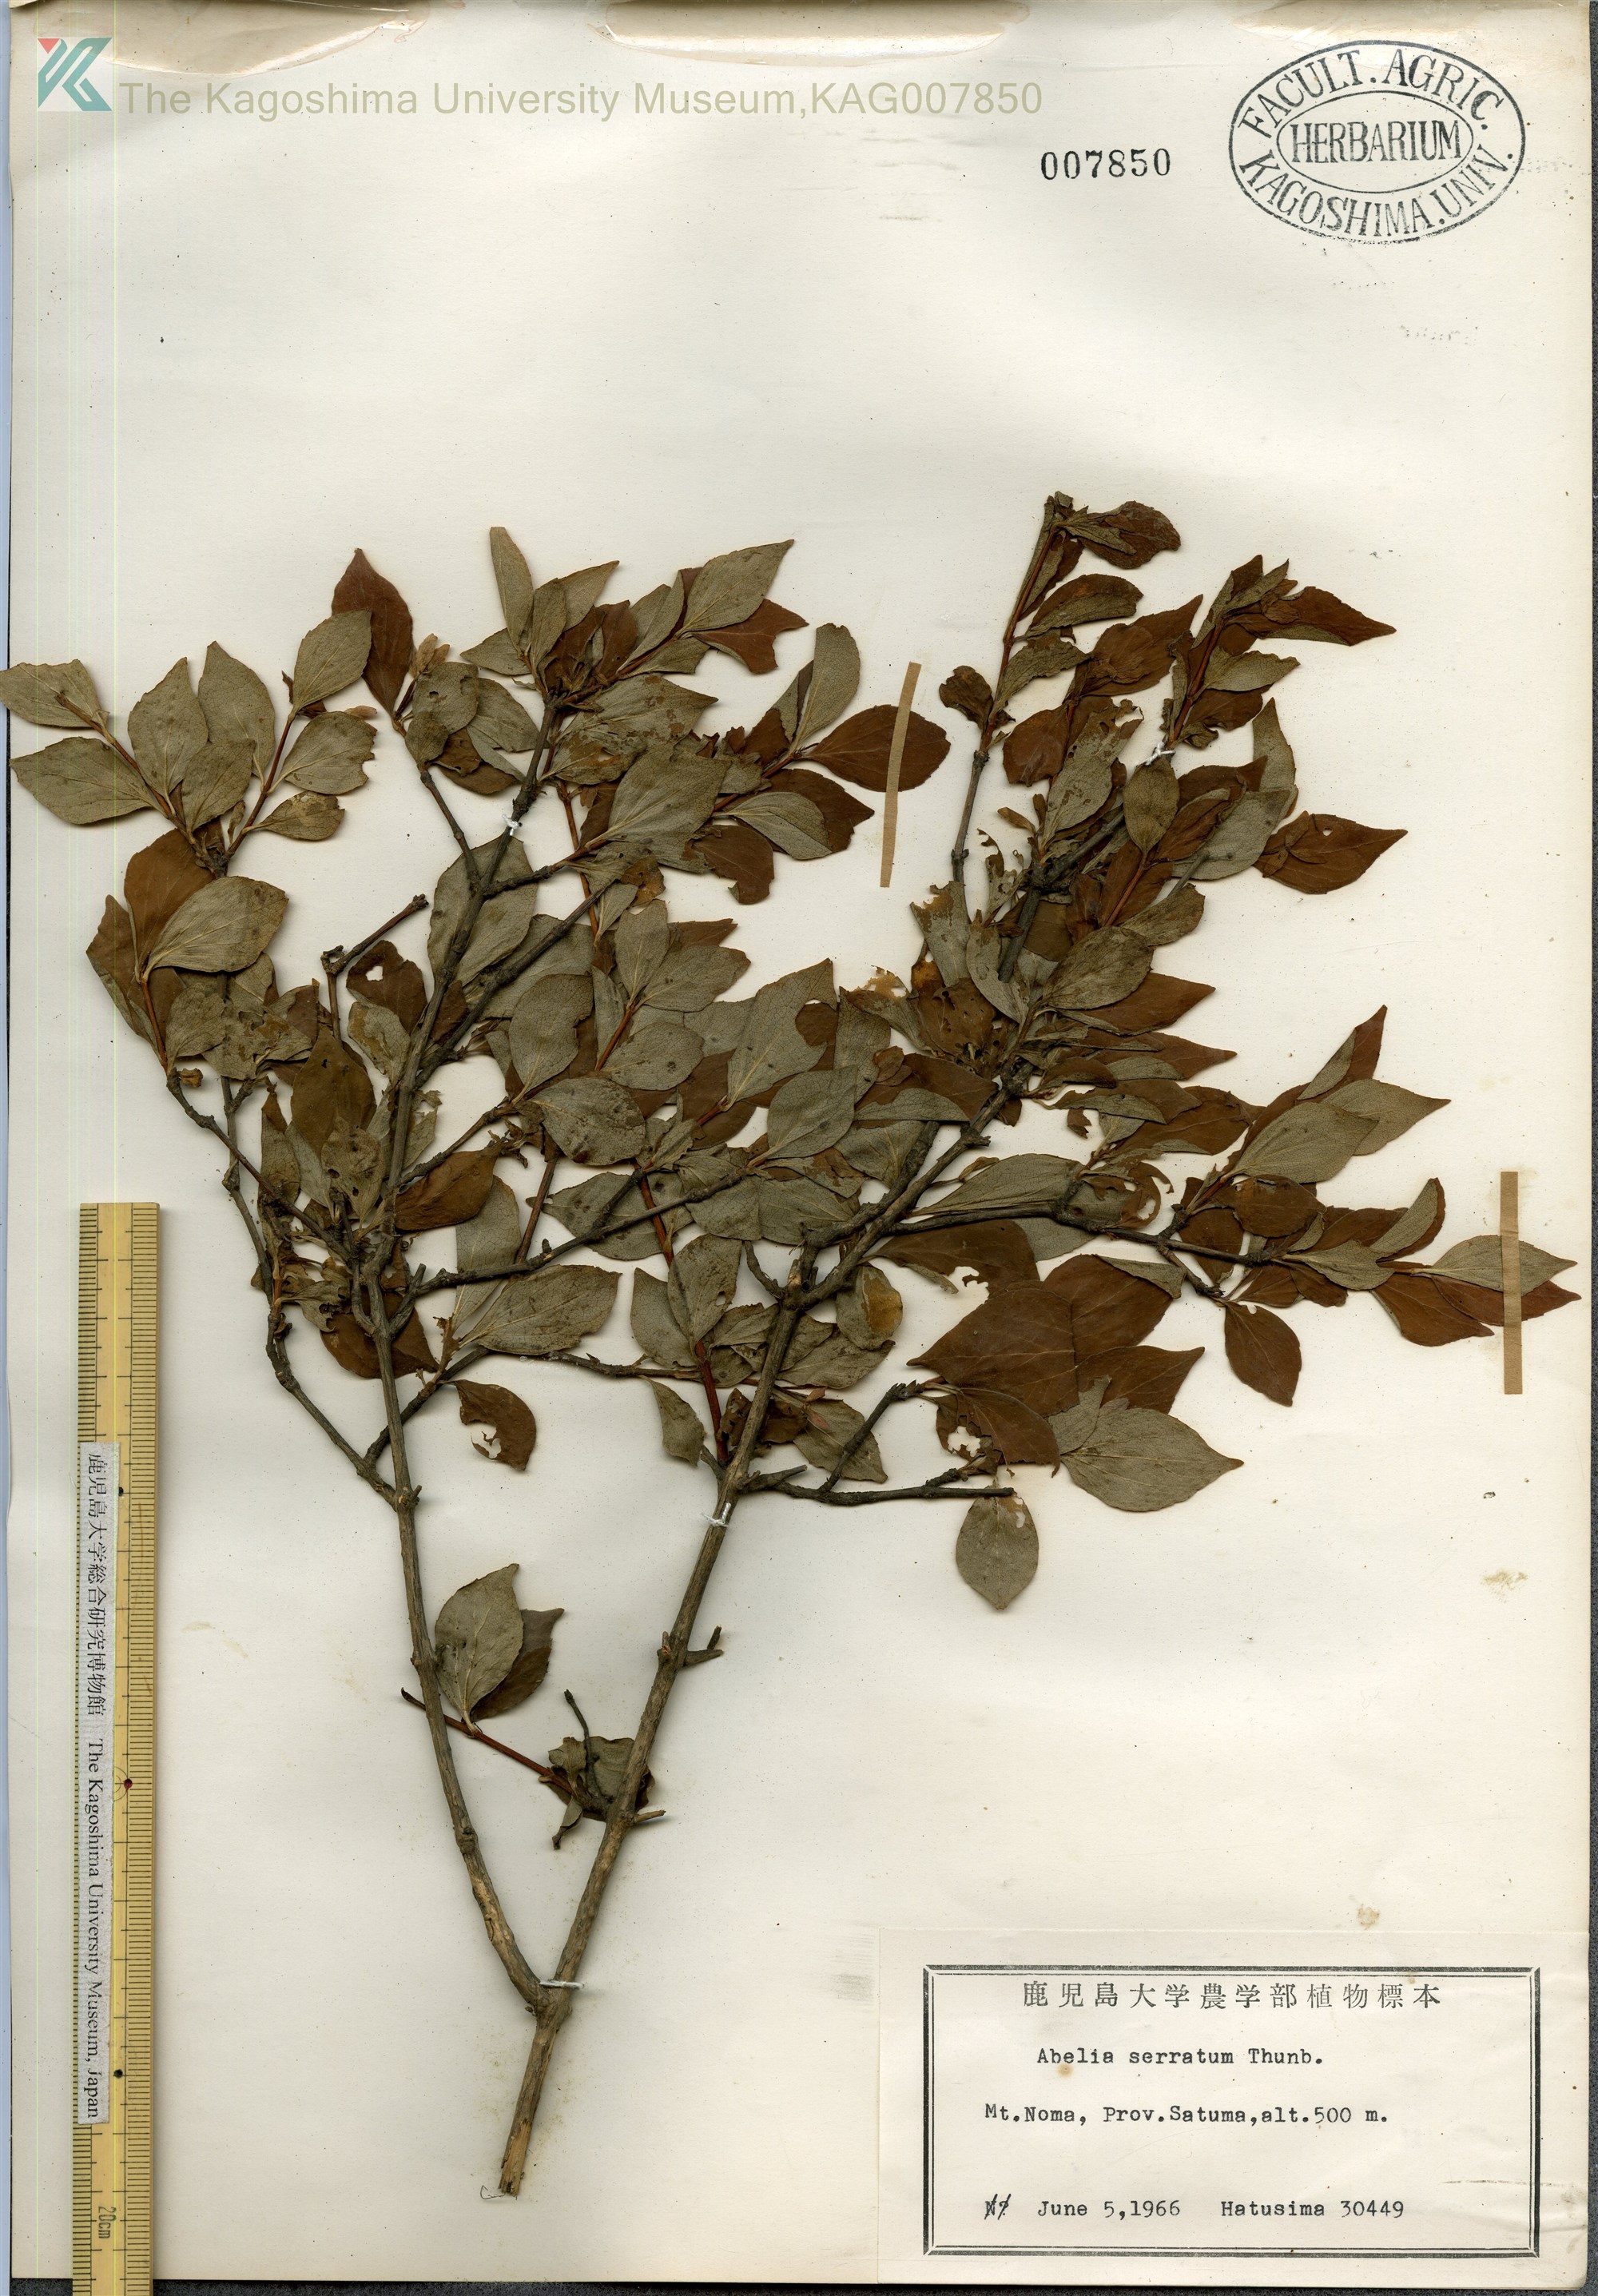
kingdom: Plantae
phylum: Tracheophyta
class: Magnoliopsida
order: Dipsacales
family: Caprifoliaceae
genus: Diabelia
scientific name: Diabelia serrata
